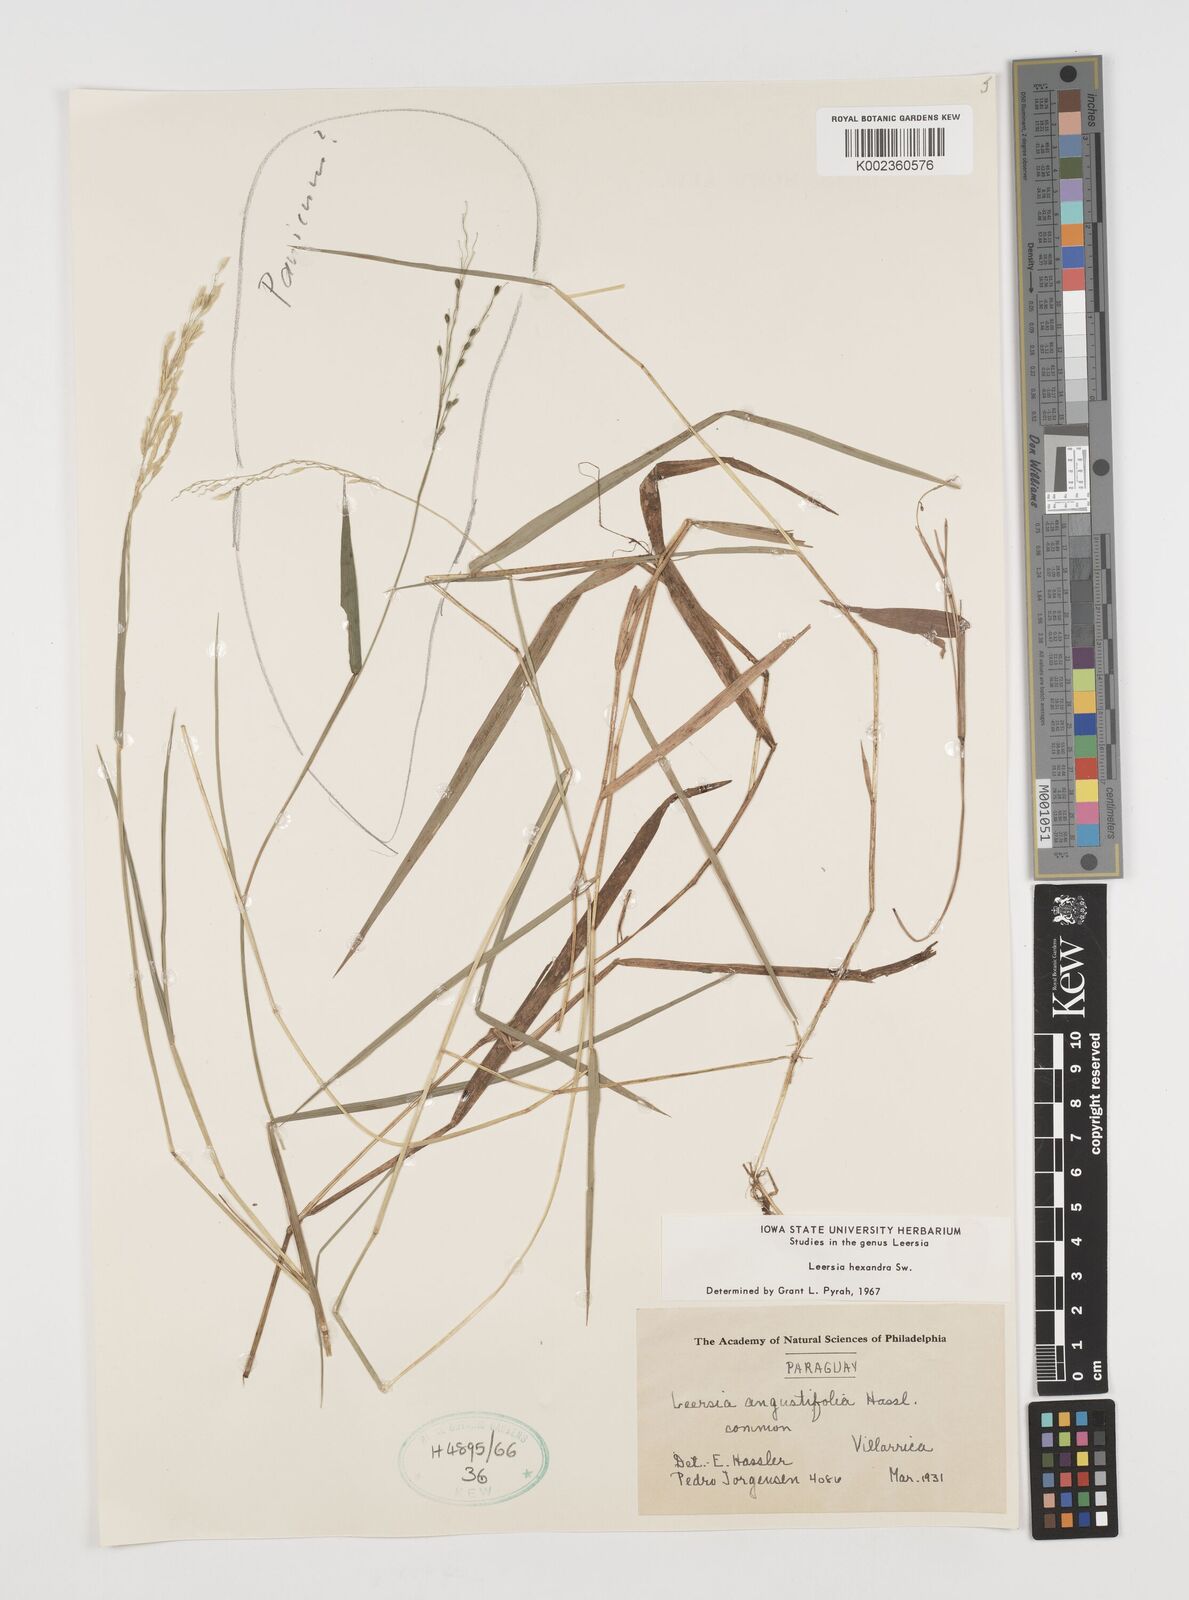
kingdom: Plantae
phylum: Tracheophyta
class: Liliopsida
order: Poales
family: Poaceae
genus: Leersia
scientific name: Leersia hexandra
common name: Southern cut grass
